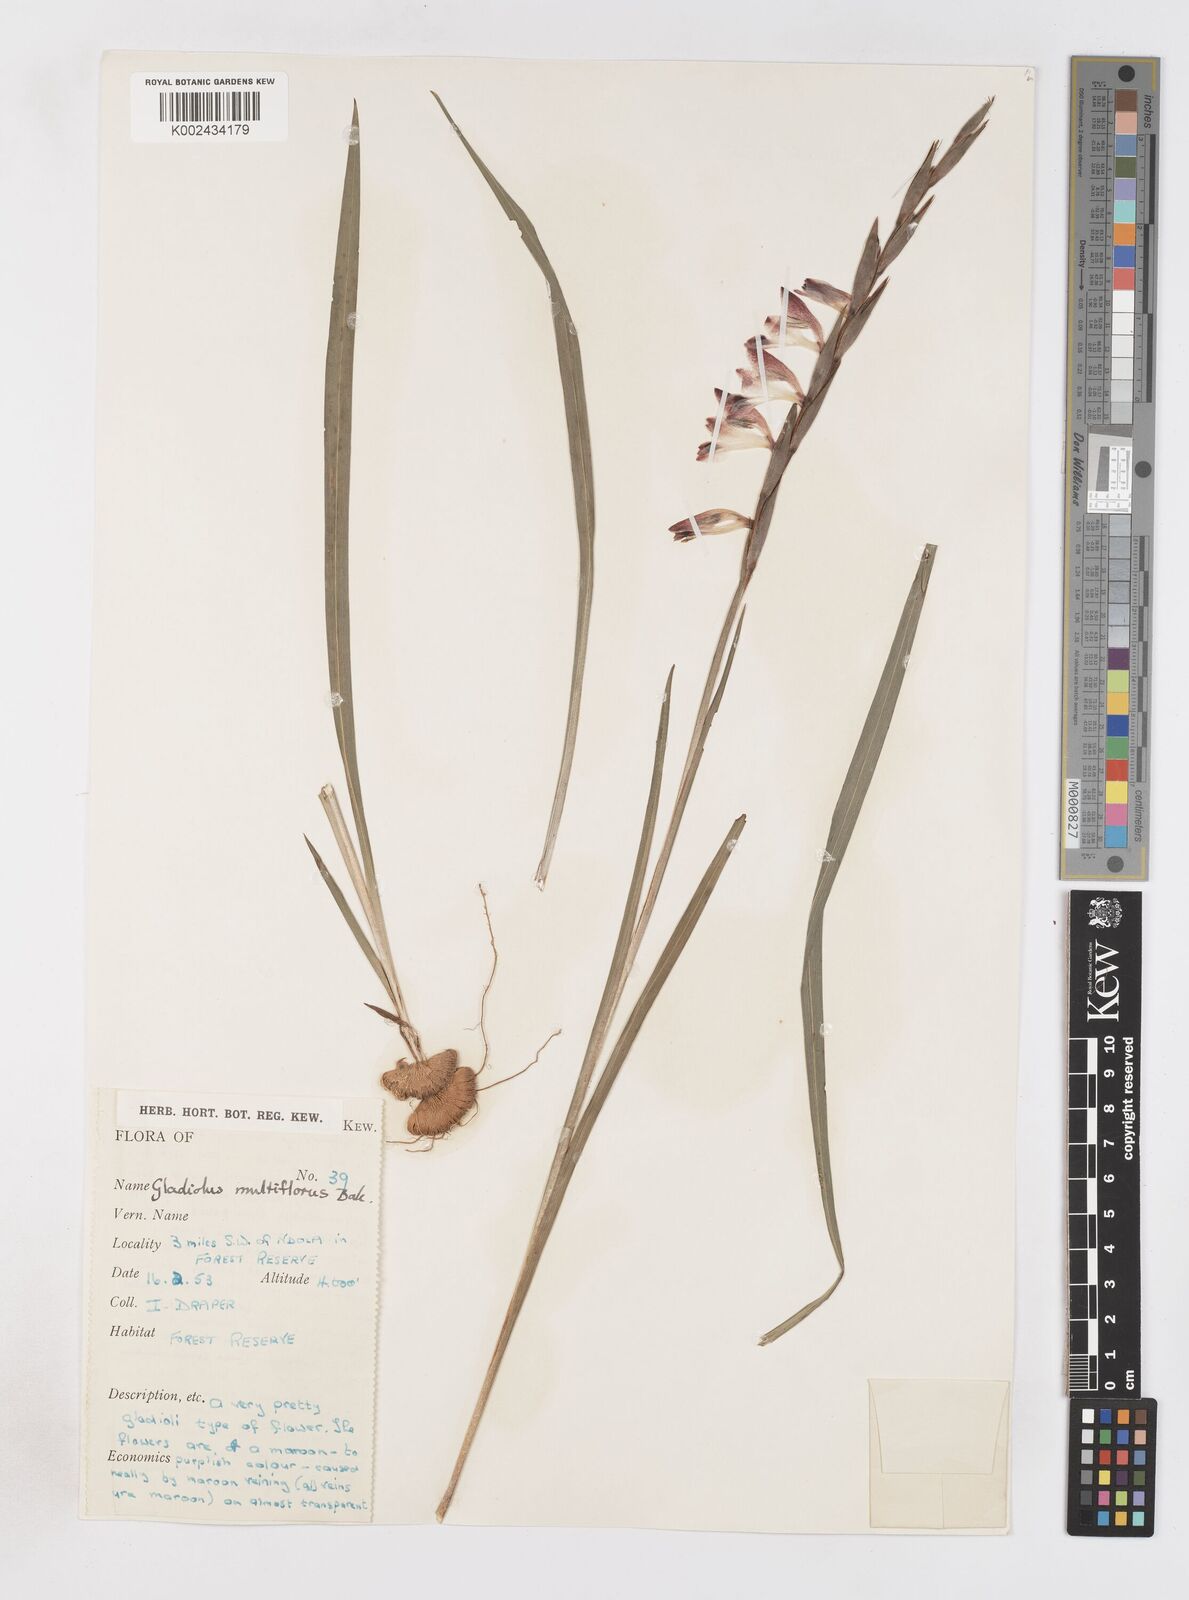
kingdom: Plantae
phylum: Tracheophyta
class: Liliopsida
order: Asparagales
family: Iridaceae
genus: Gladiolus
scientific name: Gladiolus gregarius
